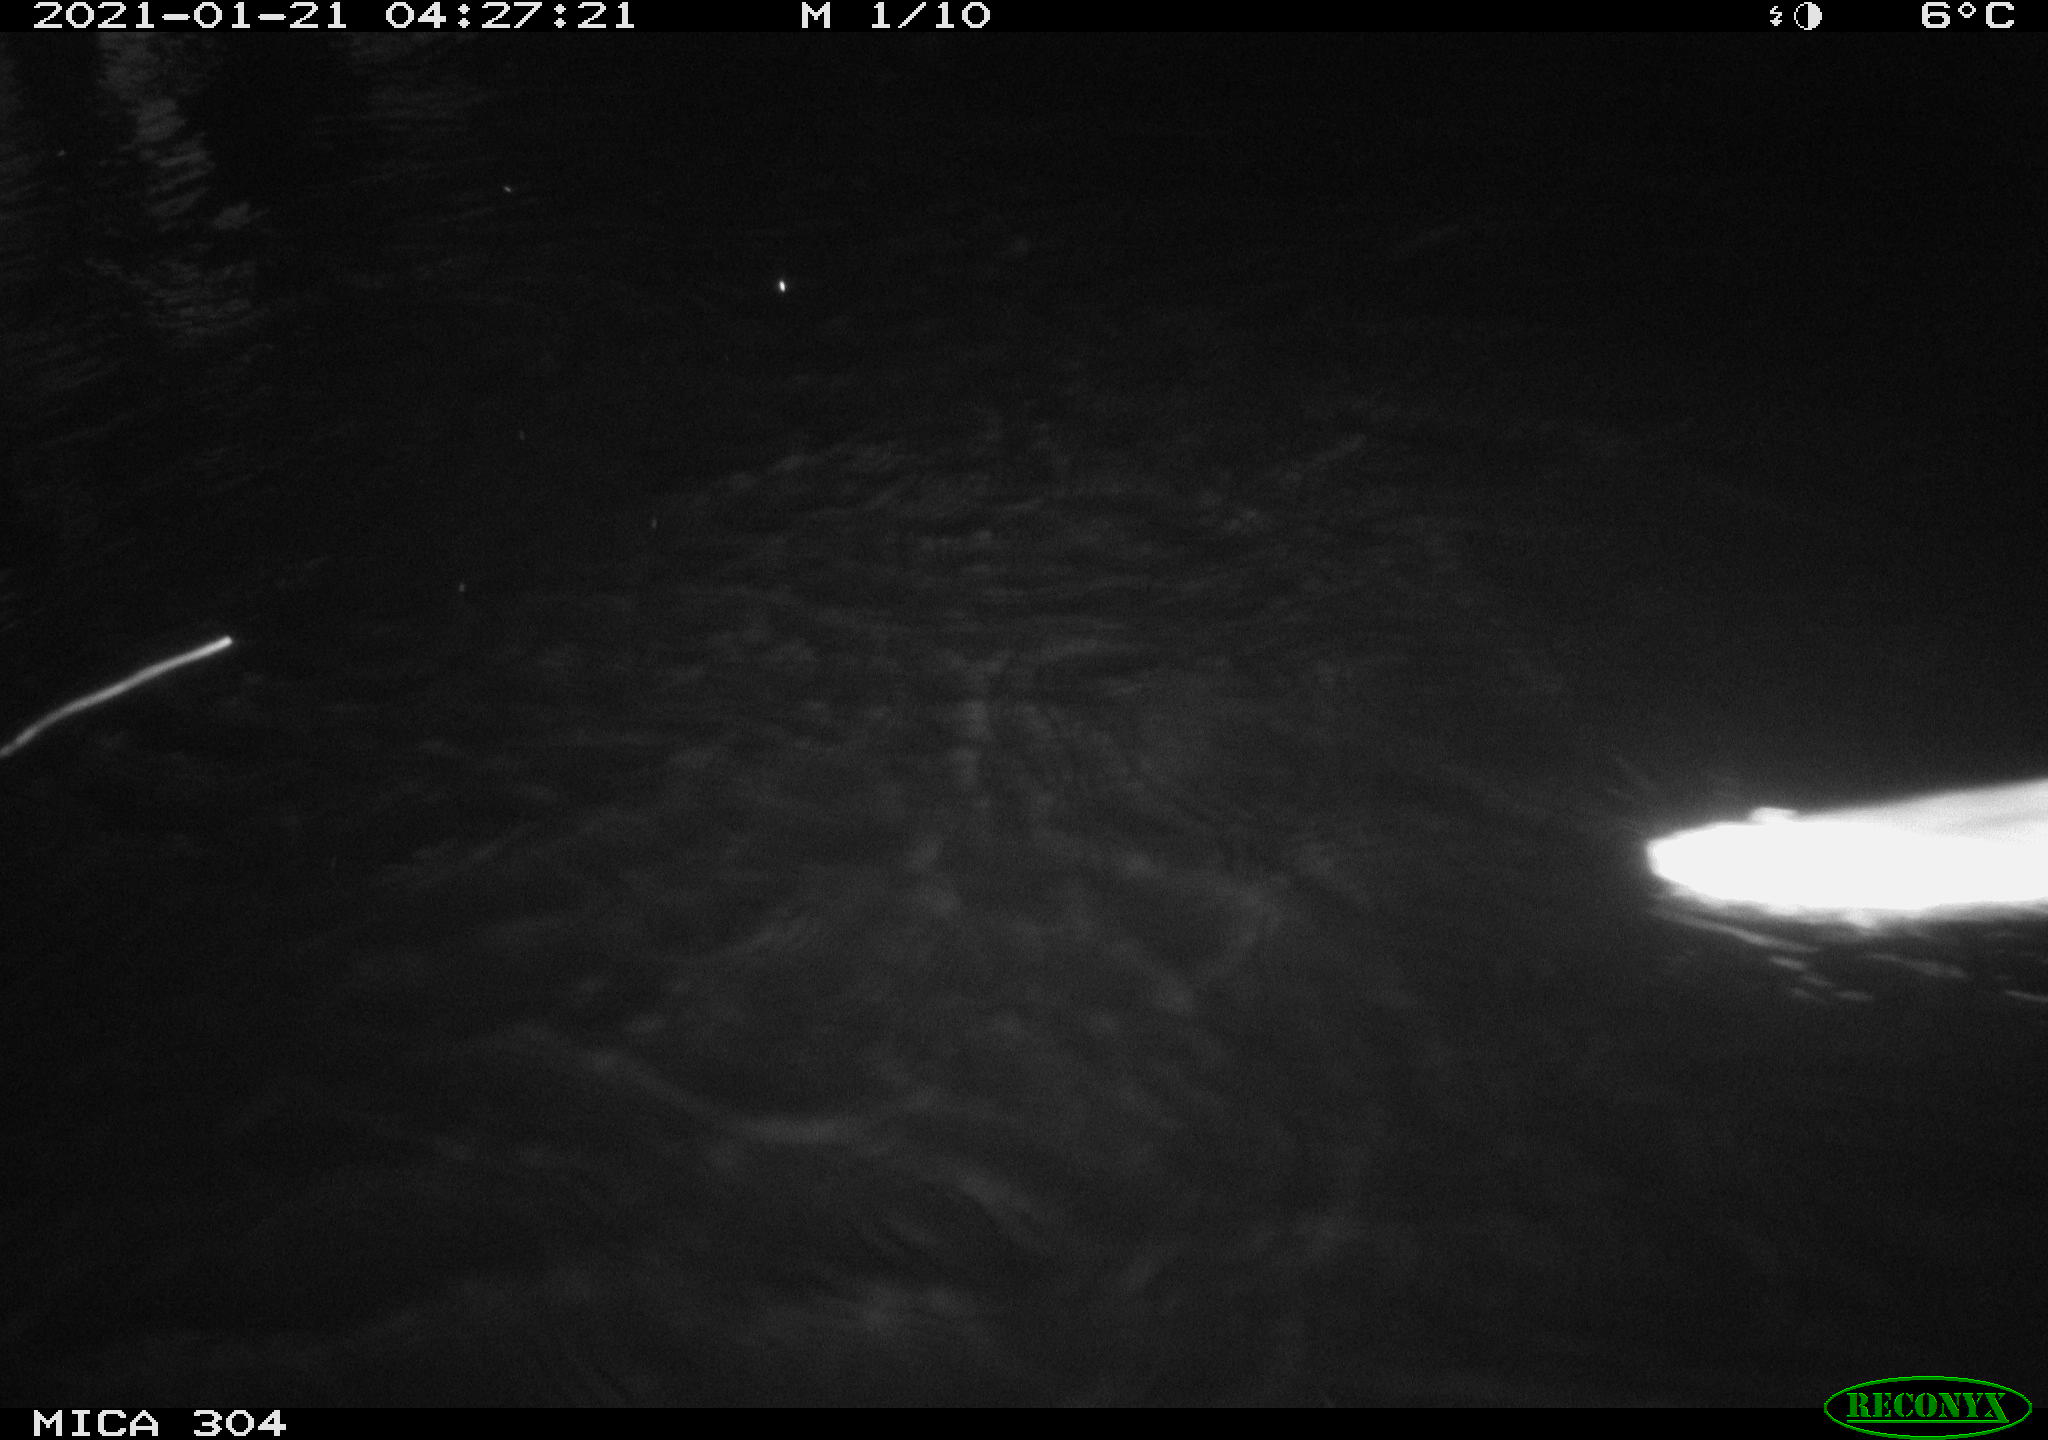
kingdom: Animalia
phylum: Chordata
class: Mammalia
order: Rodentia
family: Muridae
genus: Rattus
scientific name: Rattus norvegicus
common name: Brown rat
